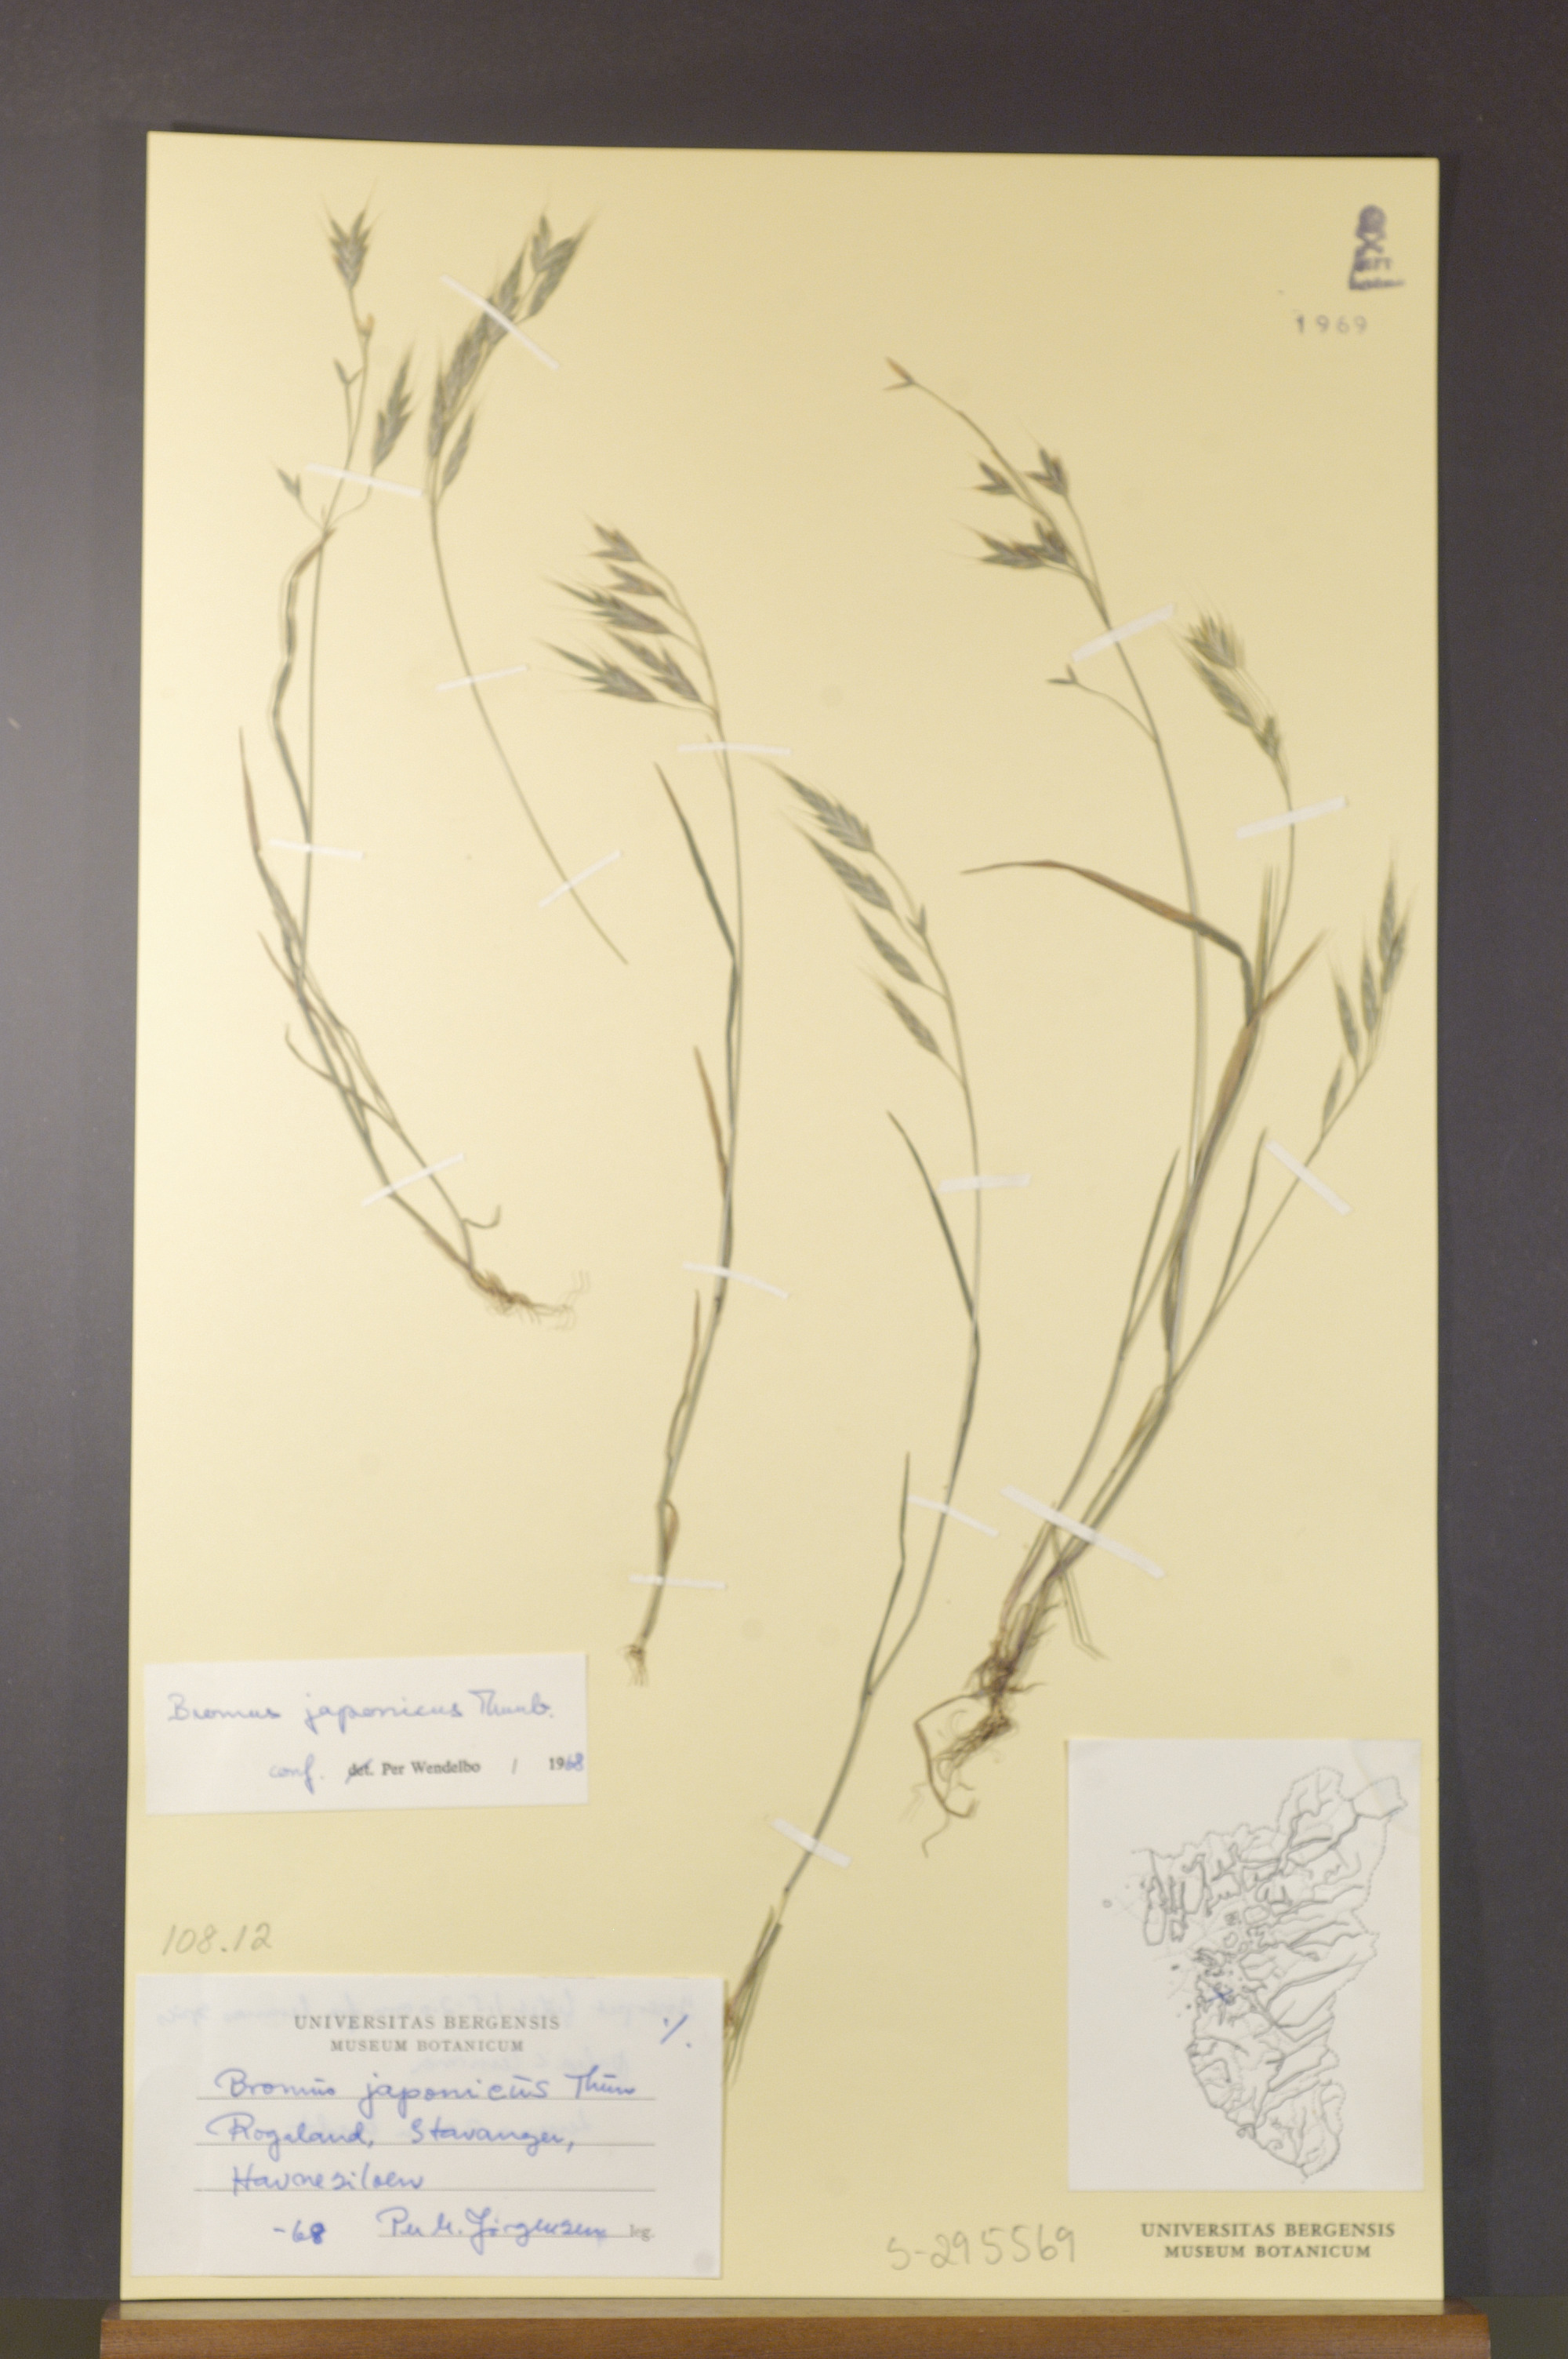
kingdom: Plantae
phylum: Tracheophyta
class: Liliopsida
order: Poales
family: Poaceae
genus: Bromus
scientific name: Bromus japonicus
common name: Japanese brome
